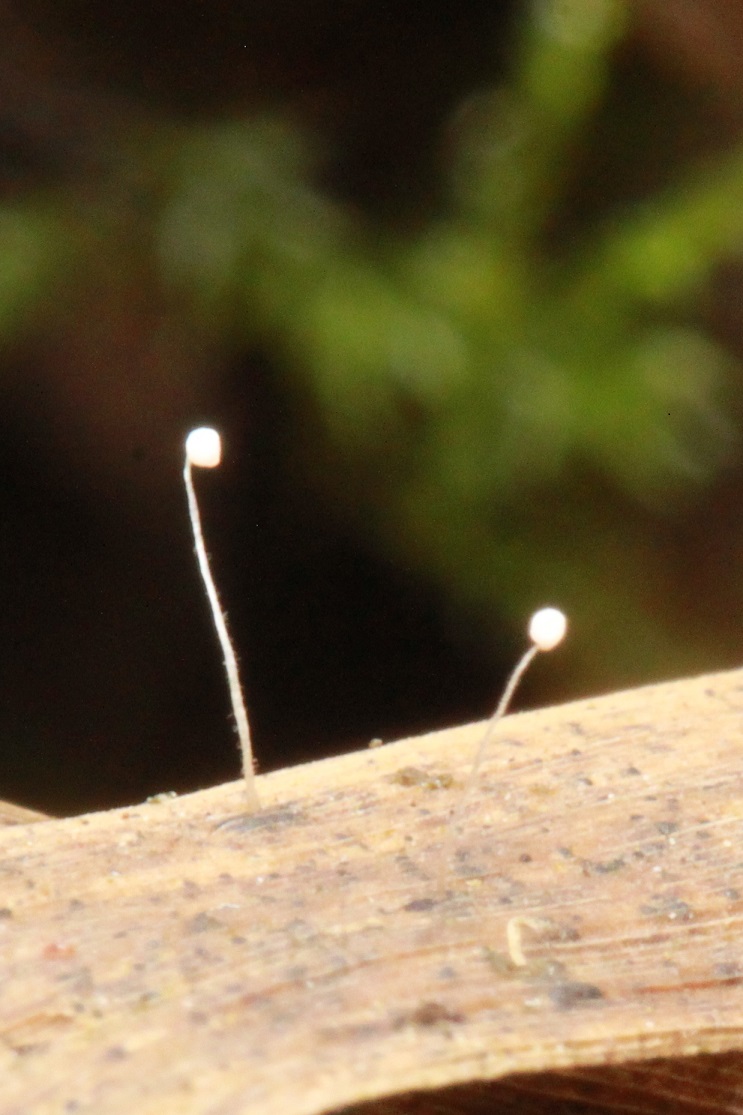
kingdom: Fungi
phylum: Basidiomycota
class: Agaricomycetes
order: Agaricales
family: Typhulaceae
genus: Typhula
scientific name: Typhula
